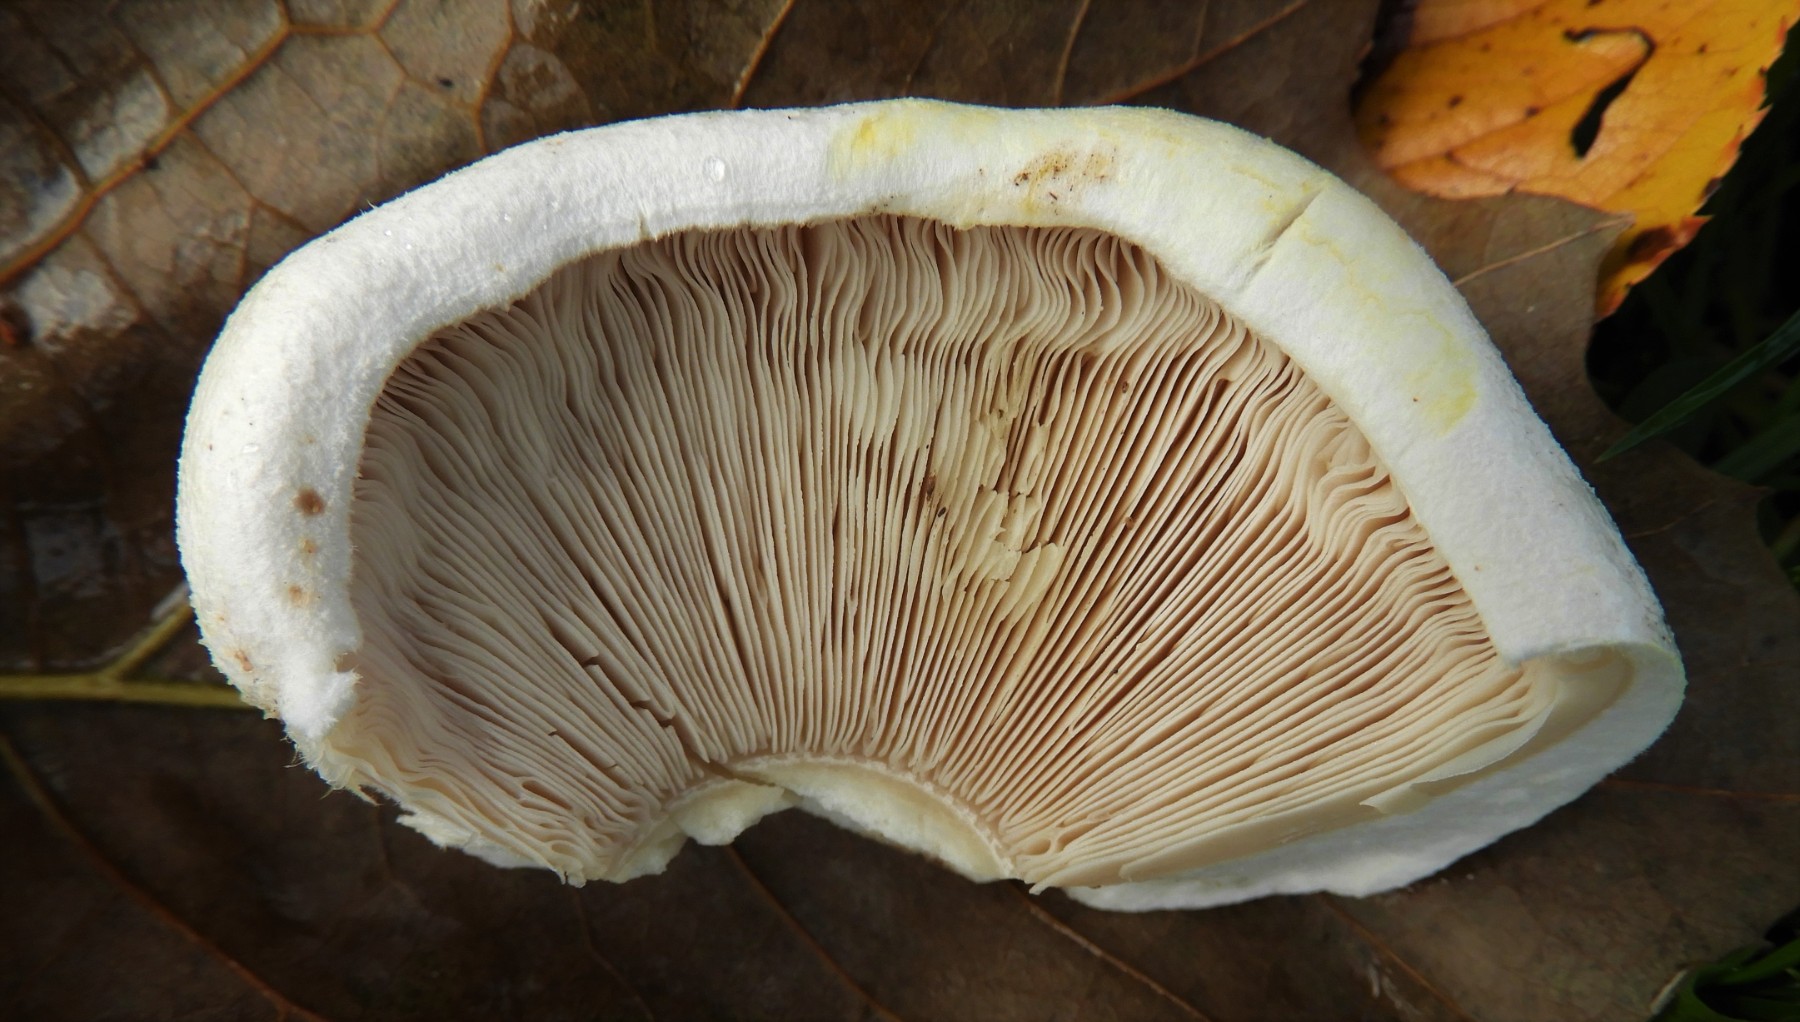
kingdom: Fungi
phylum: Basidiomycota
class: Agaricomycetes
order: Agaricales
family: Agaricaceae
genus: Agaricus
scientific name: Agaricus
